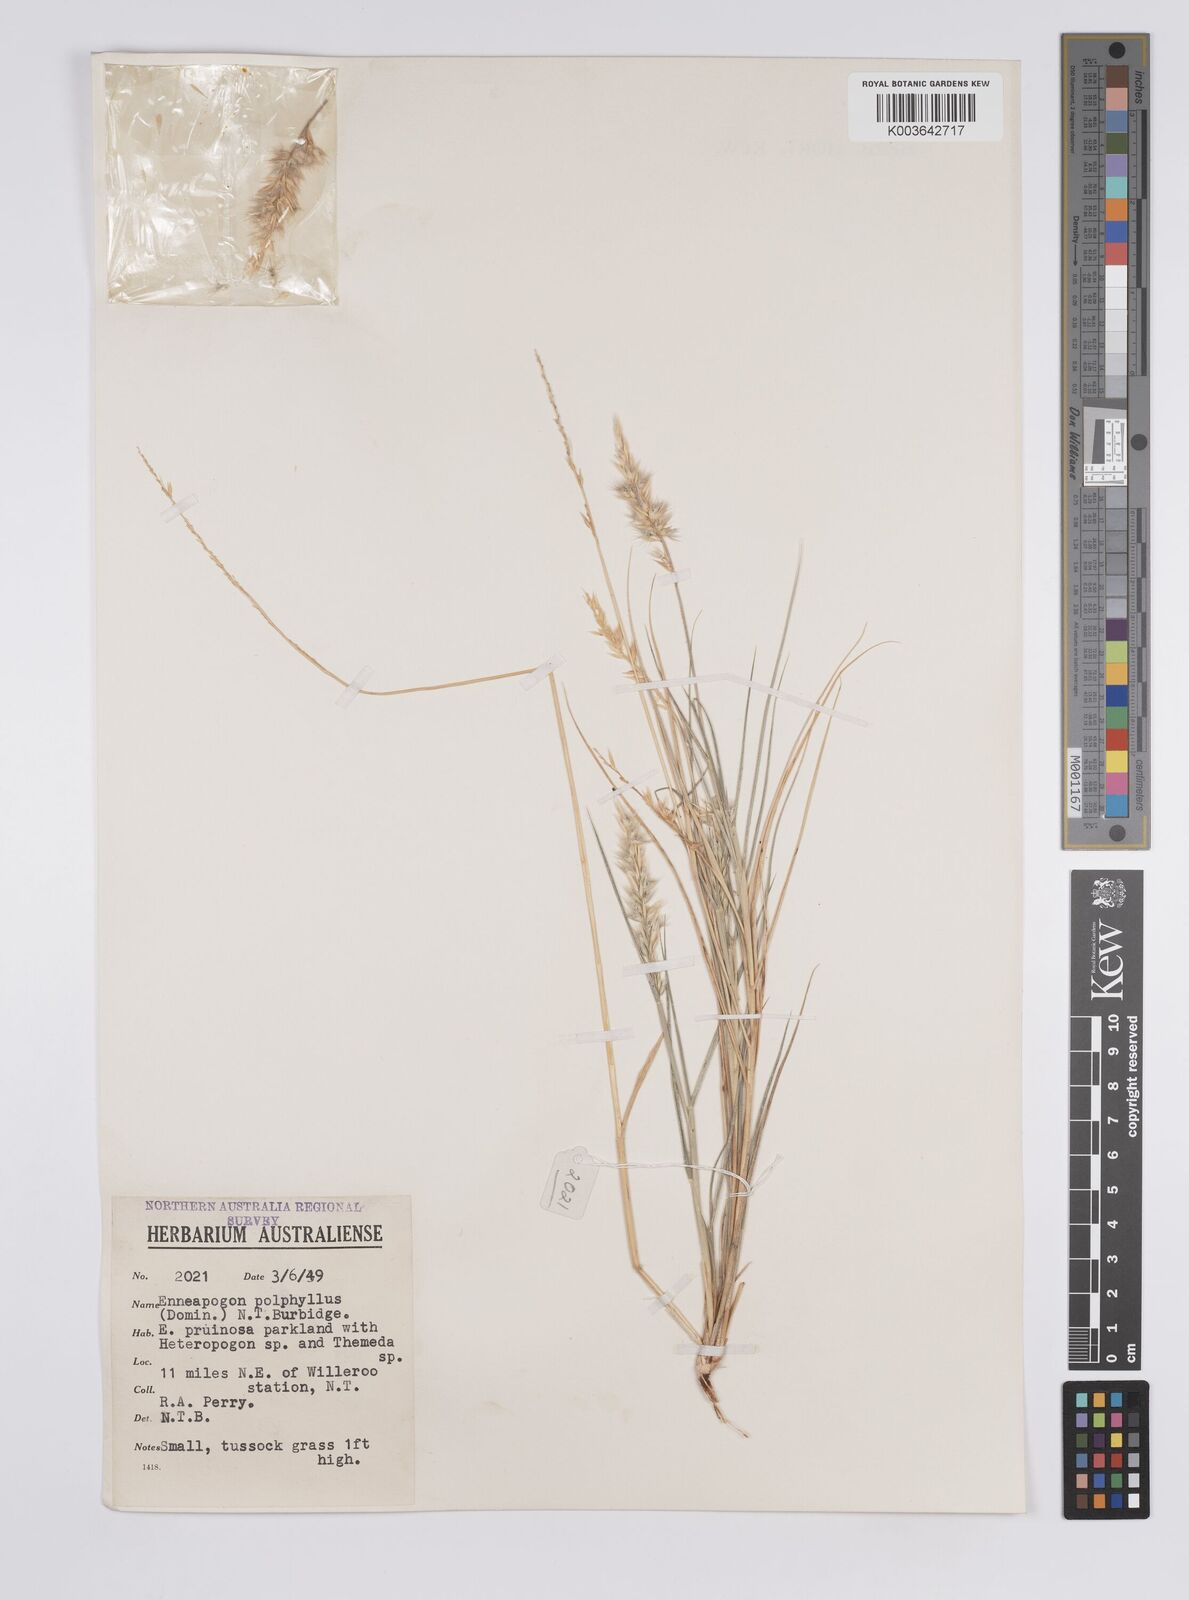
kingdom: Plantae
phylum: Tracheophyta
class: Liliopsida
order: Poales
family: Poaceae
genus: Enneapogon
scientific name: Enneapogon polyphyllus
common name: Leafy nineawn
